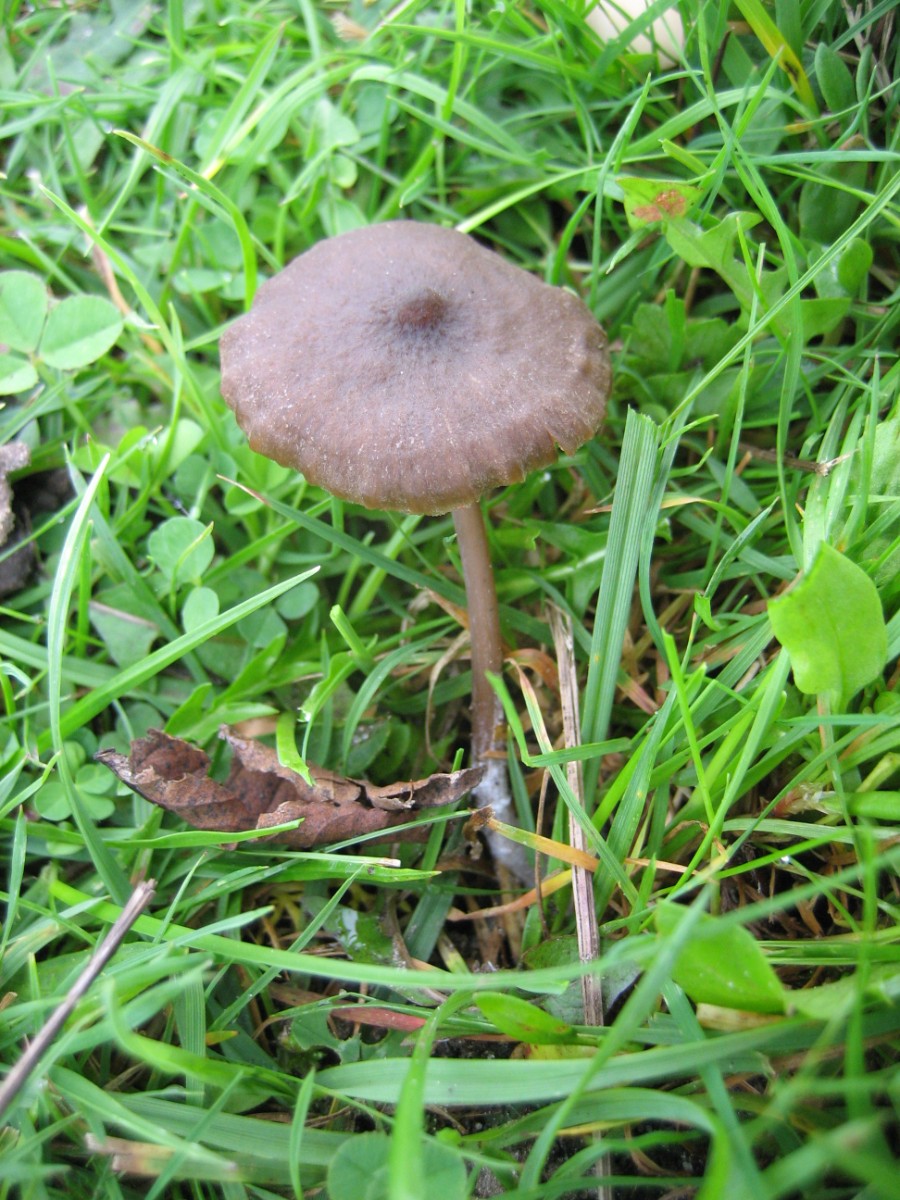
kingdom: Fungi
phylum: Basidiomycota
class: Agaricomycetes
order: Agaricales
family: Entolomataceae
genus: Entoloma
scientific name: Entoloma
